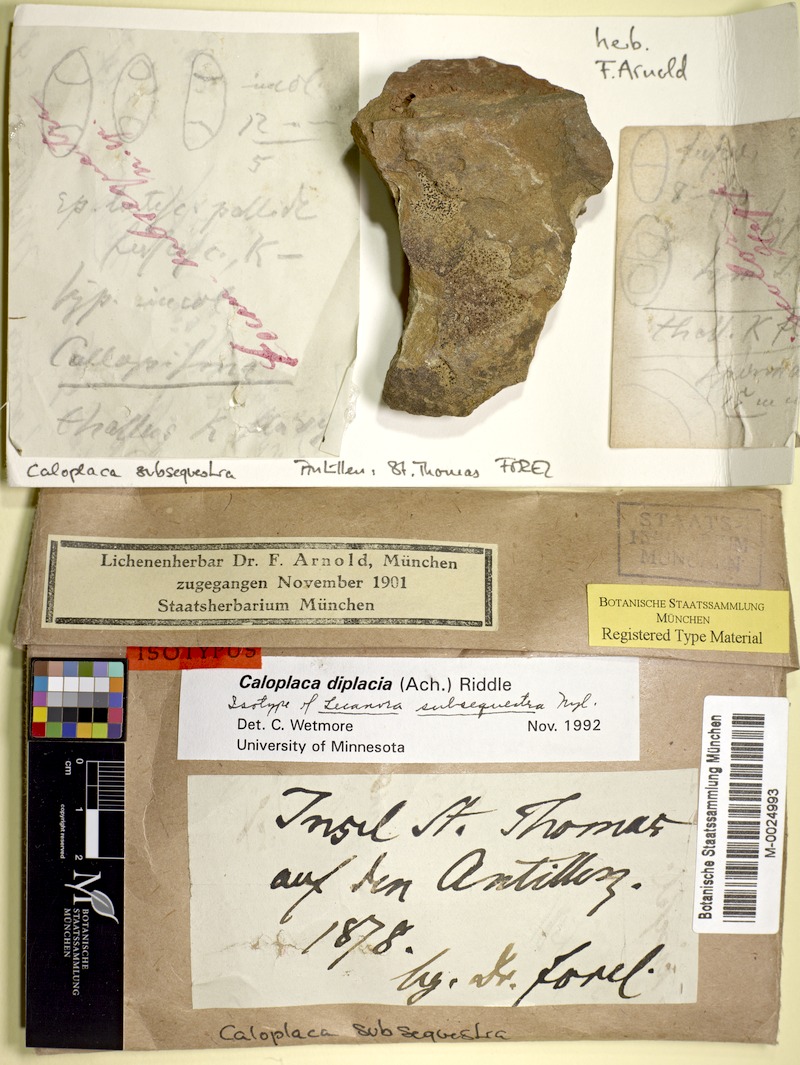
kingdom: Fungi
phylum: Ascomycota
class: Lecanoromycetes
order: Teloschistales
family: Teloschistaceae
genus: Sucioplaca
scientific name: Sucioplaca diplacia
